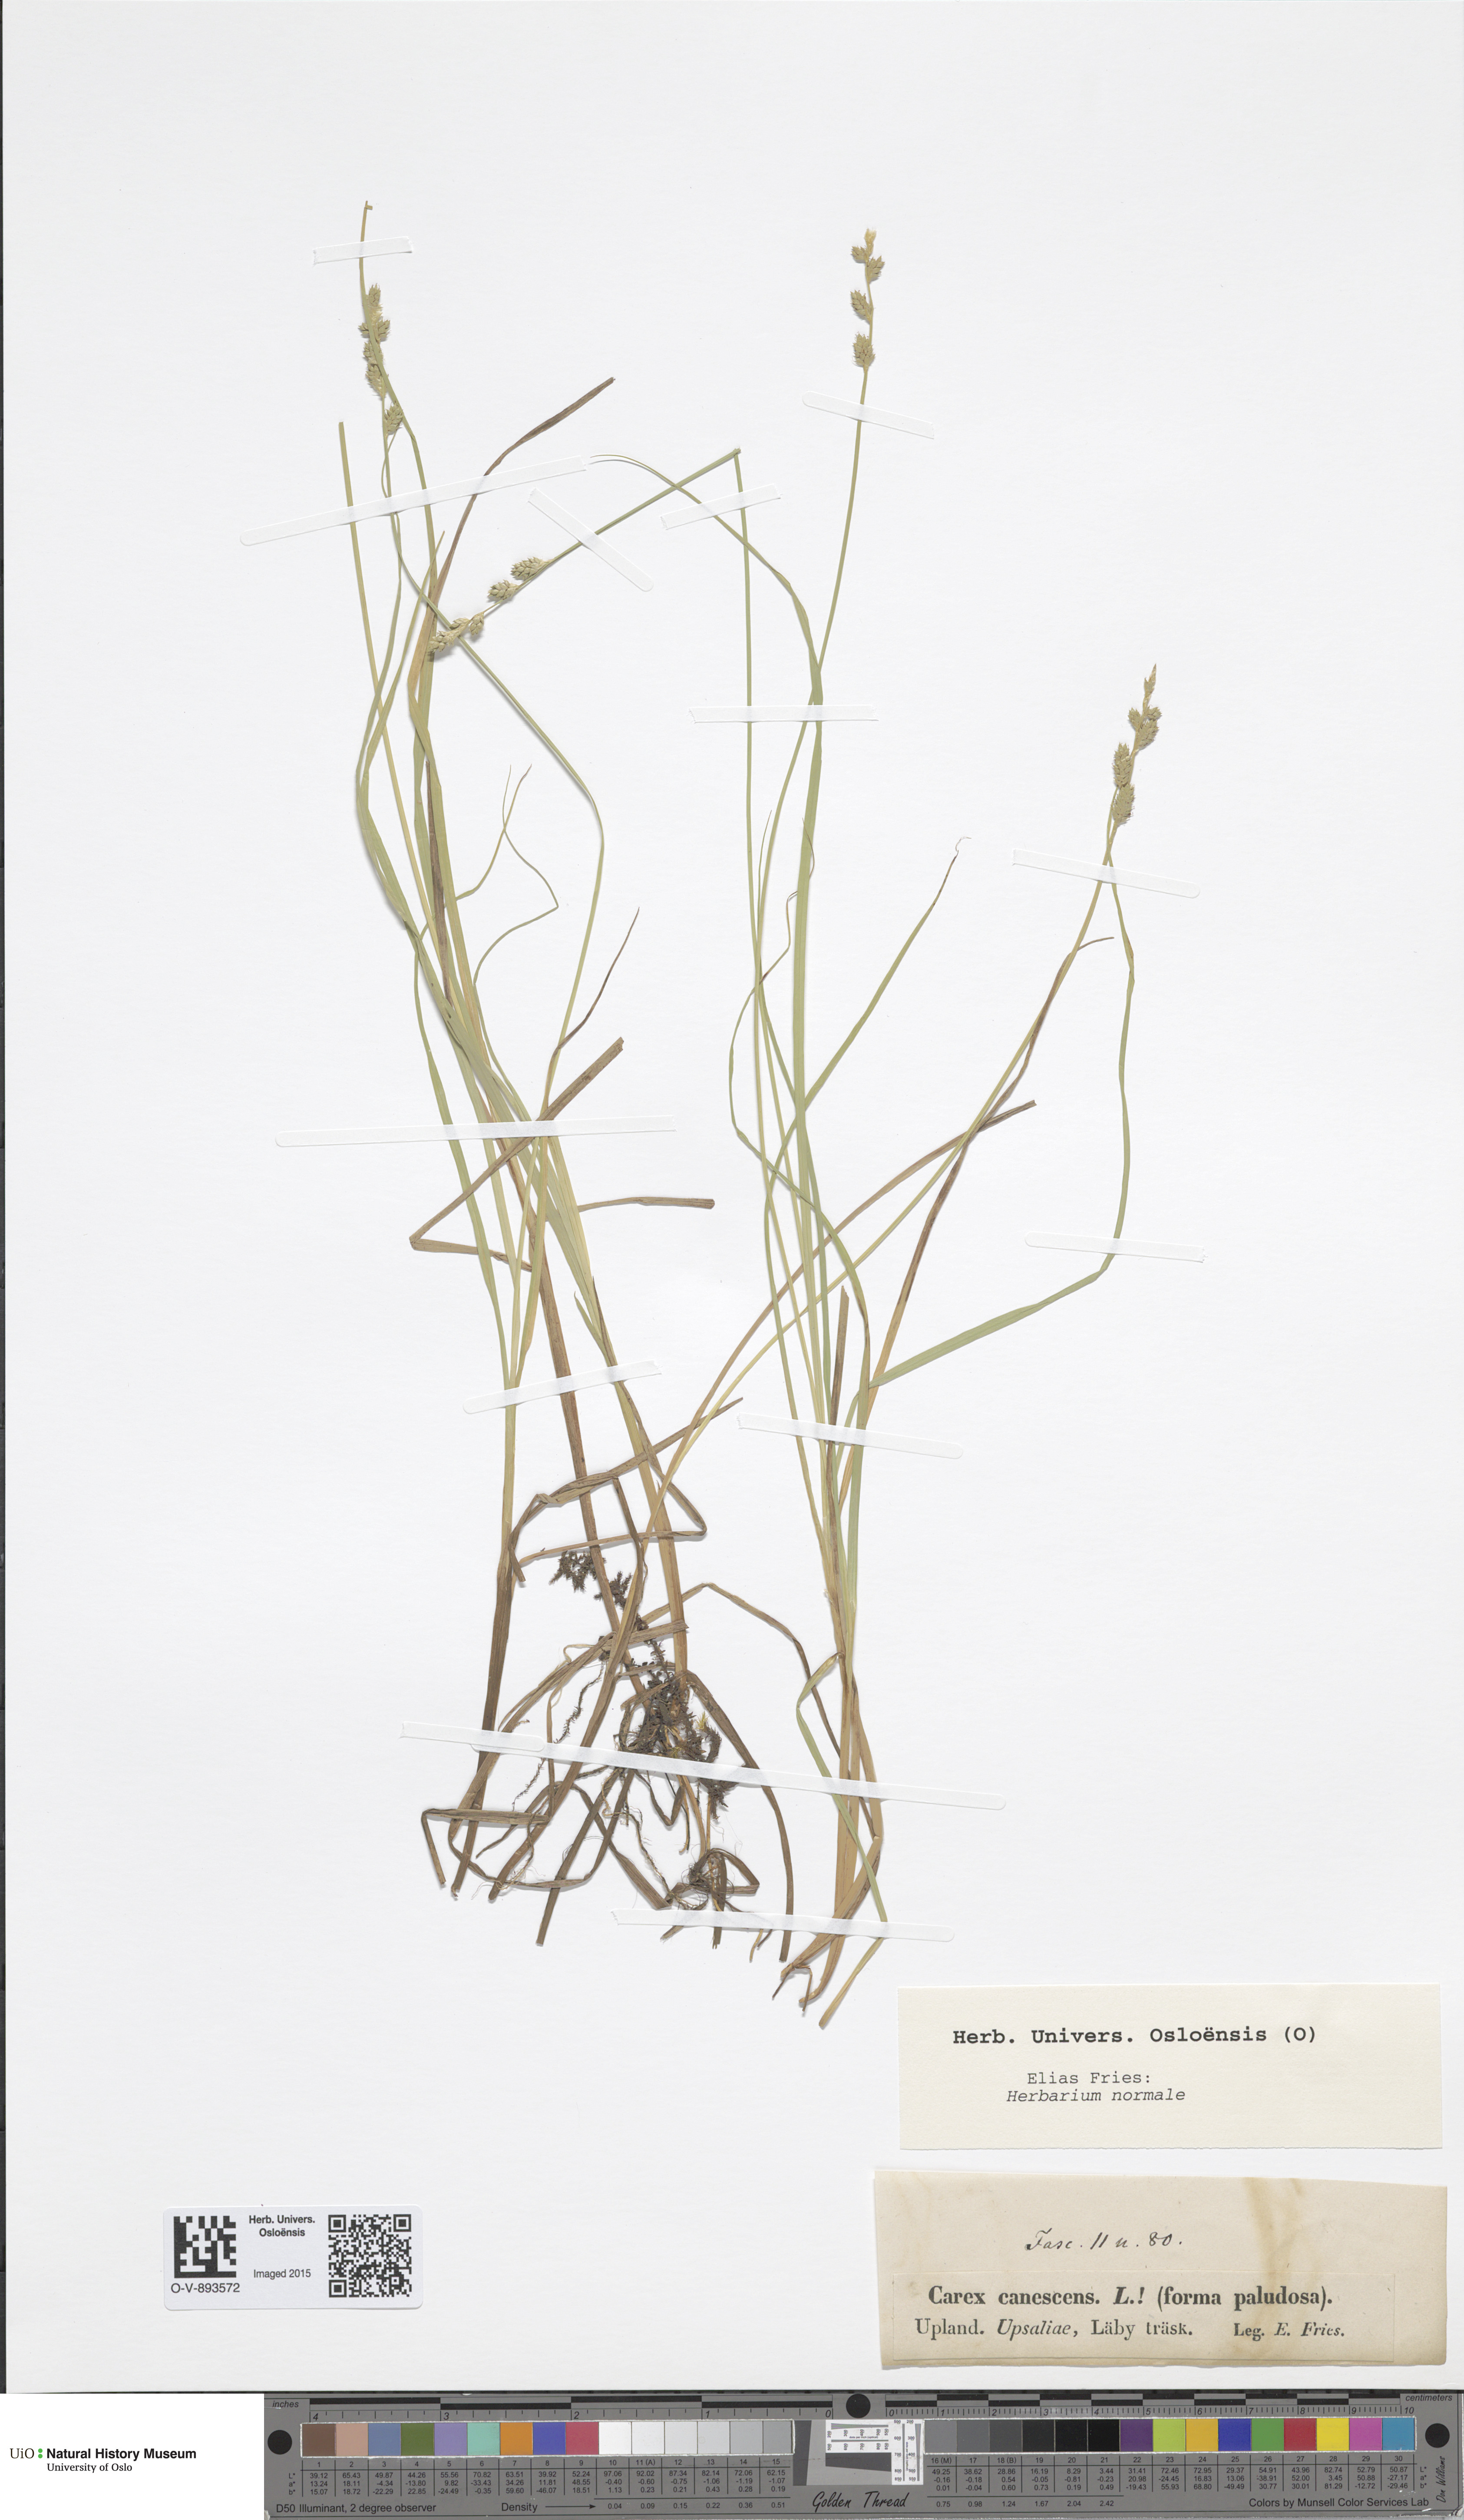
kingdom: Plantae
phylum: Tracheophyta
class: Liliopsida
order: Poales
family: Cyperaceae
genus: Carex
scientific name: Carex canescens
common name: White sedge
